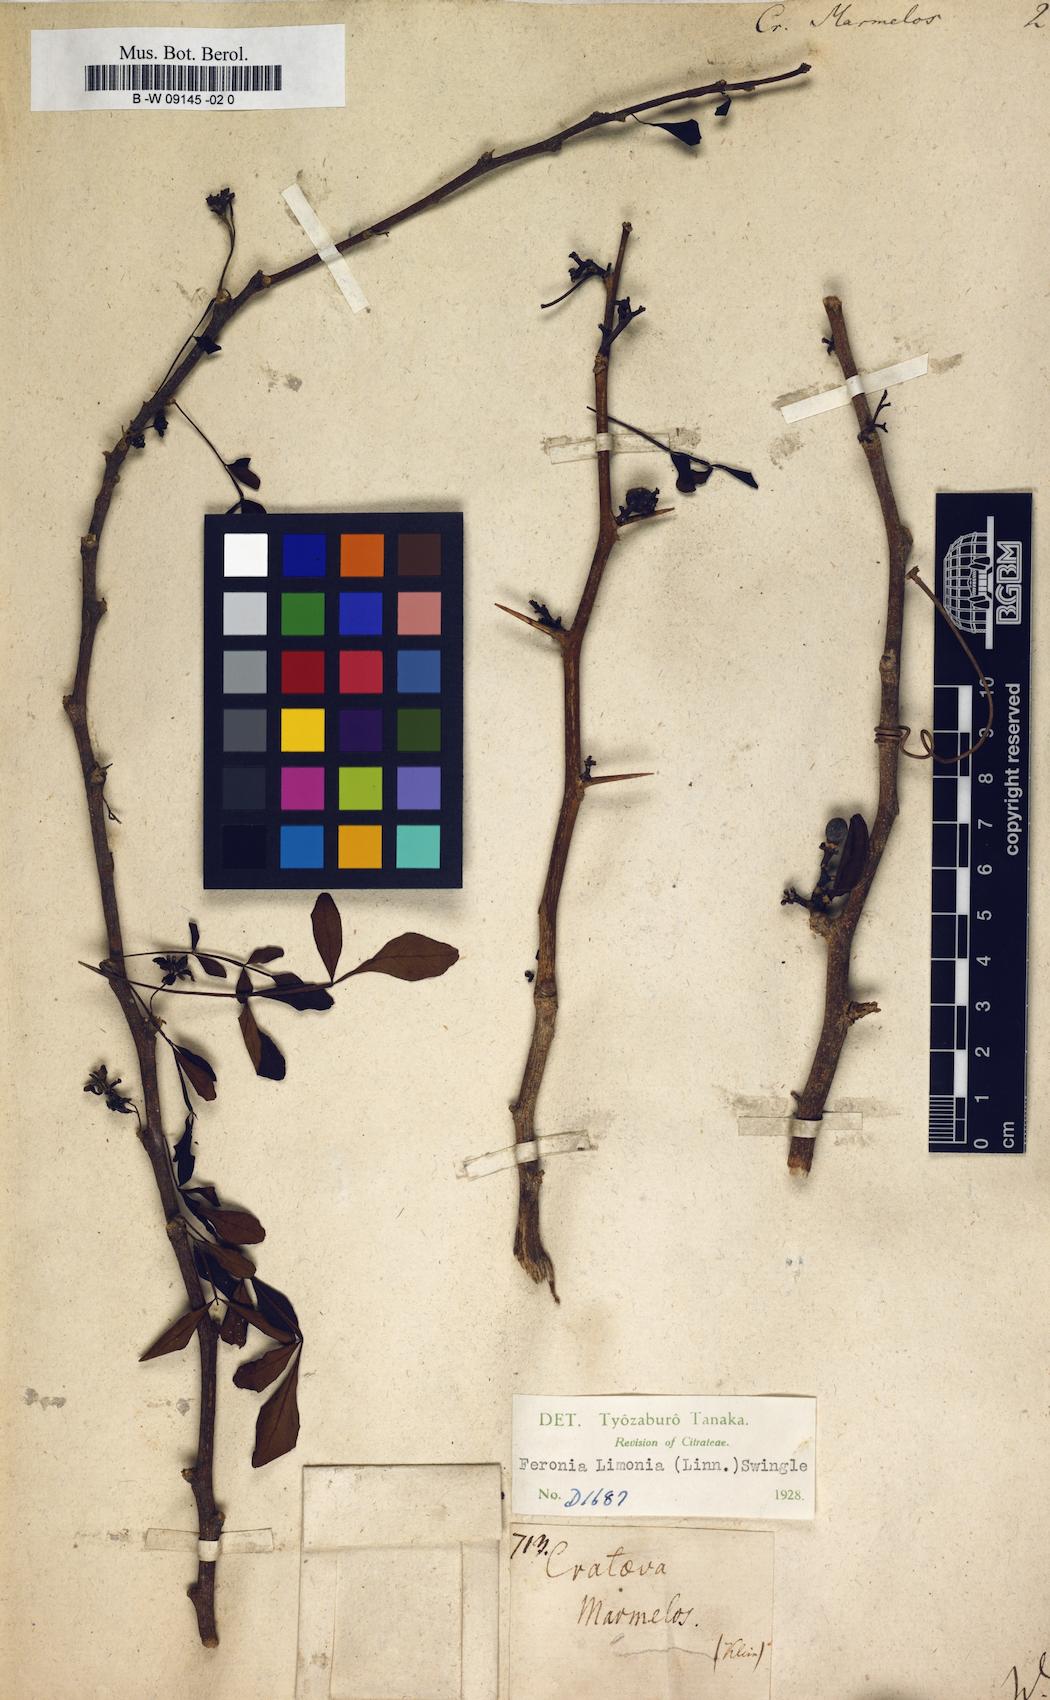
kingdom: Plantae
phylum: Tracheophyta
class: Magnoliopsida
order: Brassicales
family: Capparaceae
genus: Crateva
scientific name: Crateva
